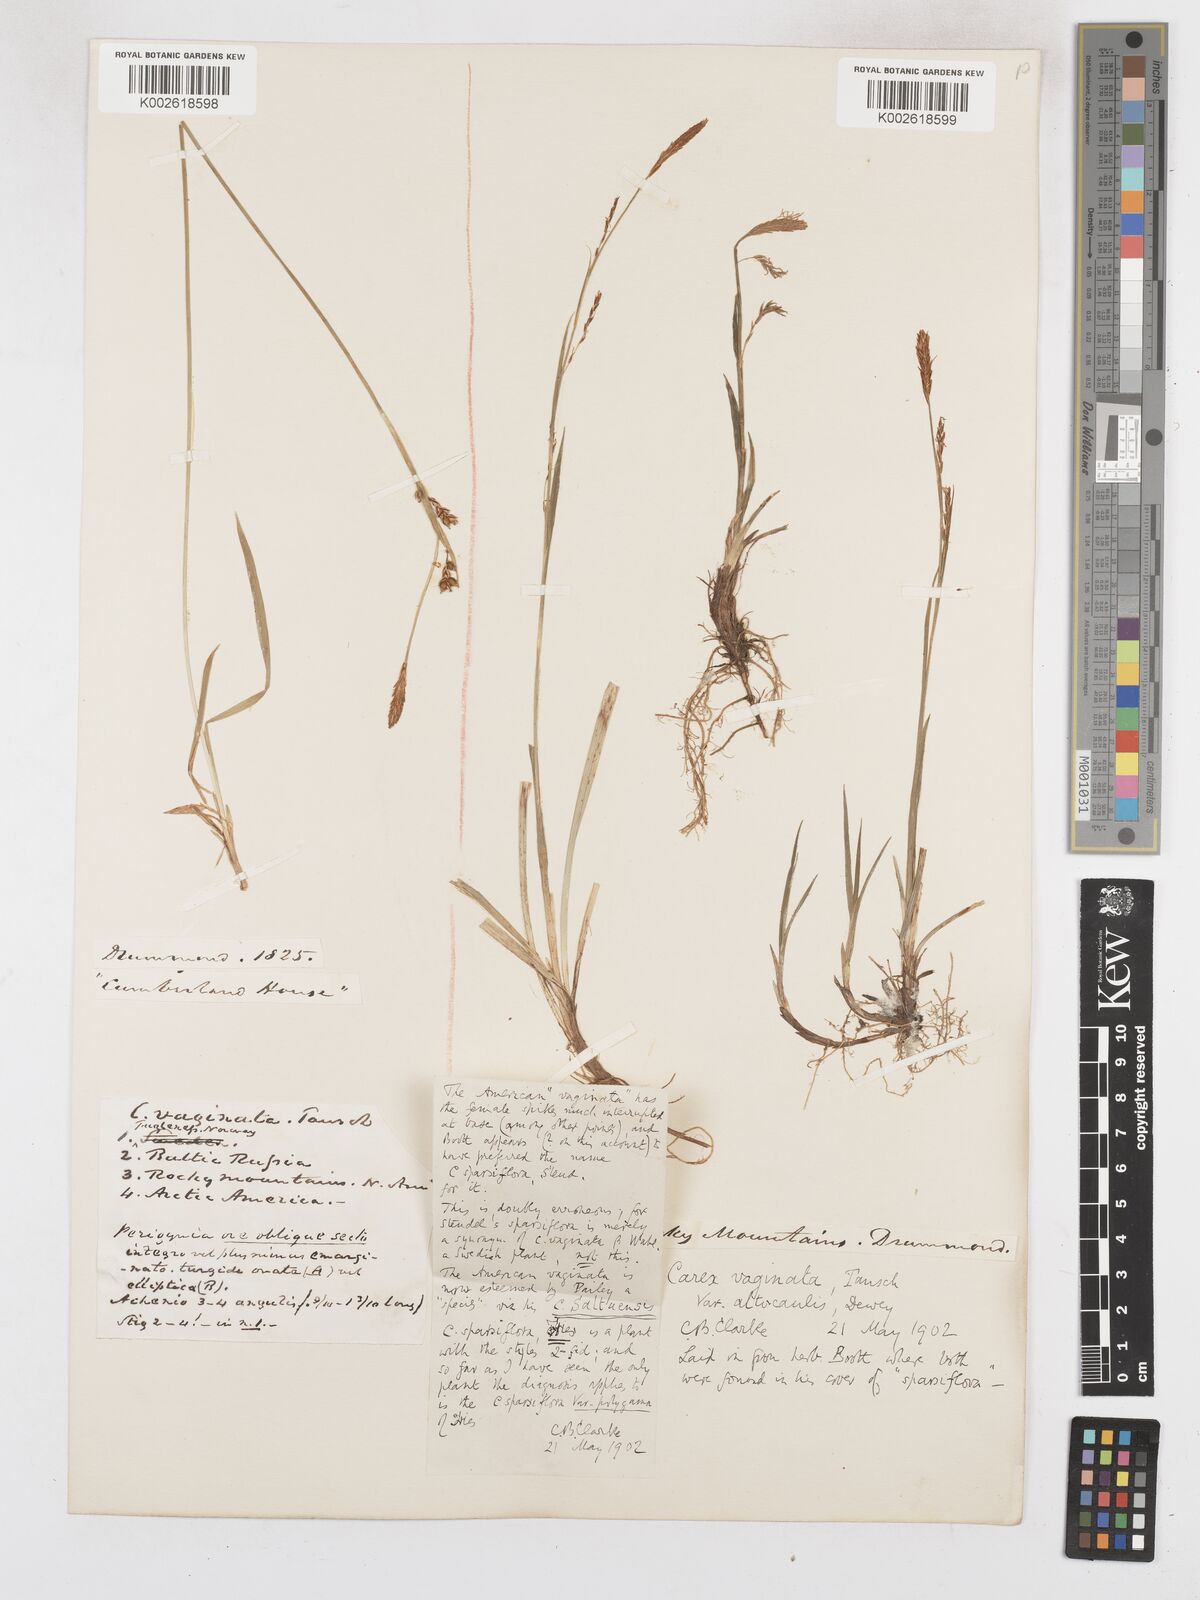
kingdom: Plantae
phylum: Tracheophyta
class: Liliopsida
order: Poales
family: Cyperaceae
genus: Carex
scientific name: Carex vaginata
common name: Sheathed sedge
